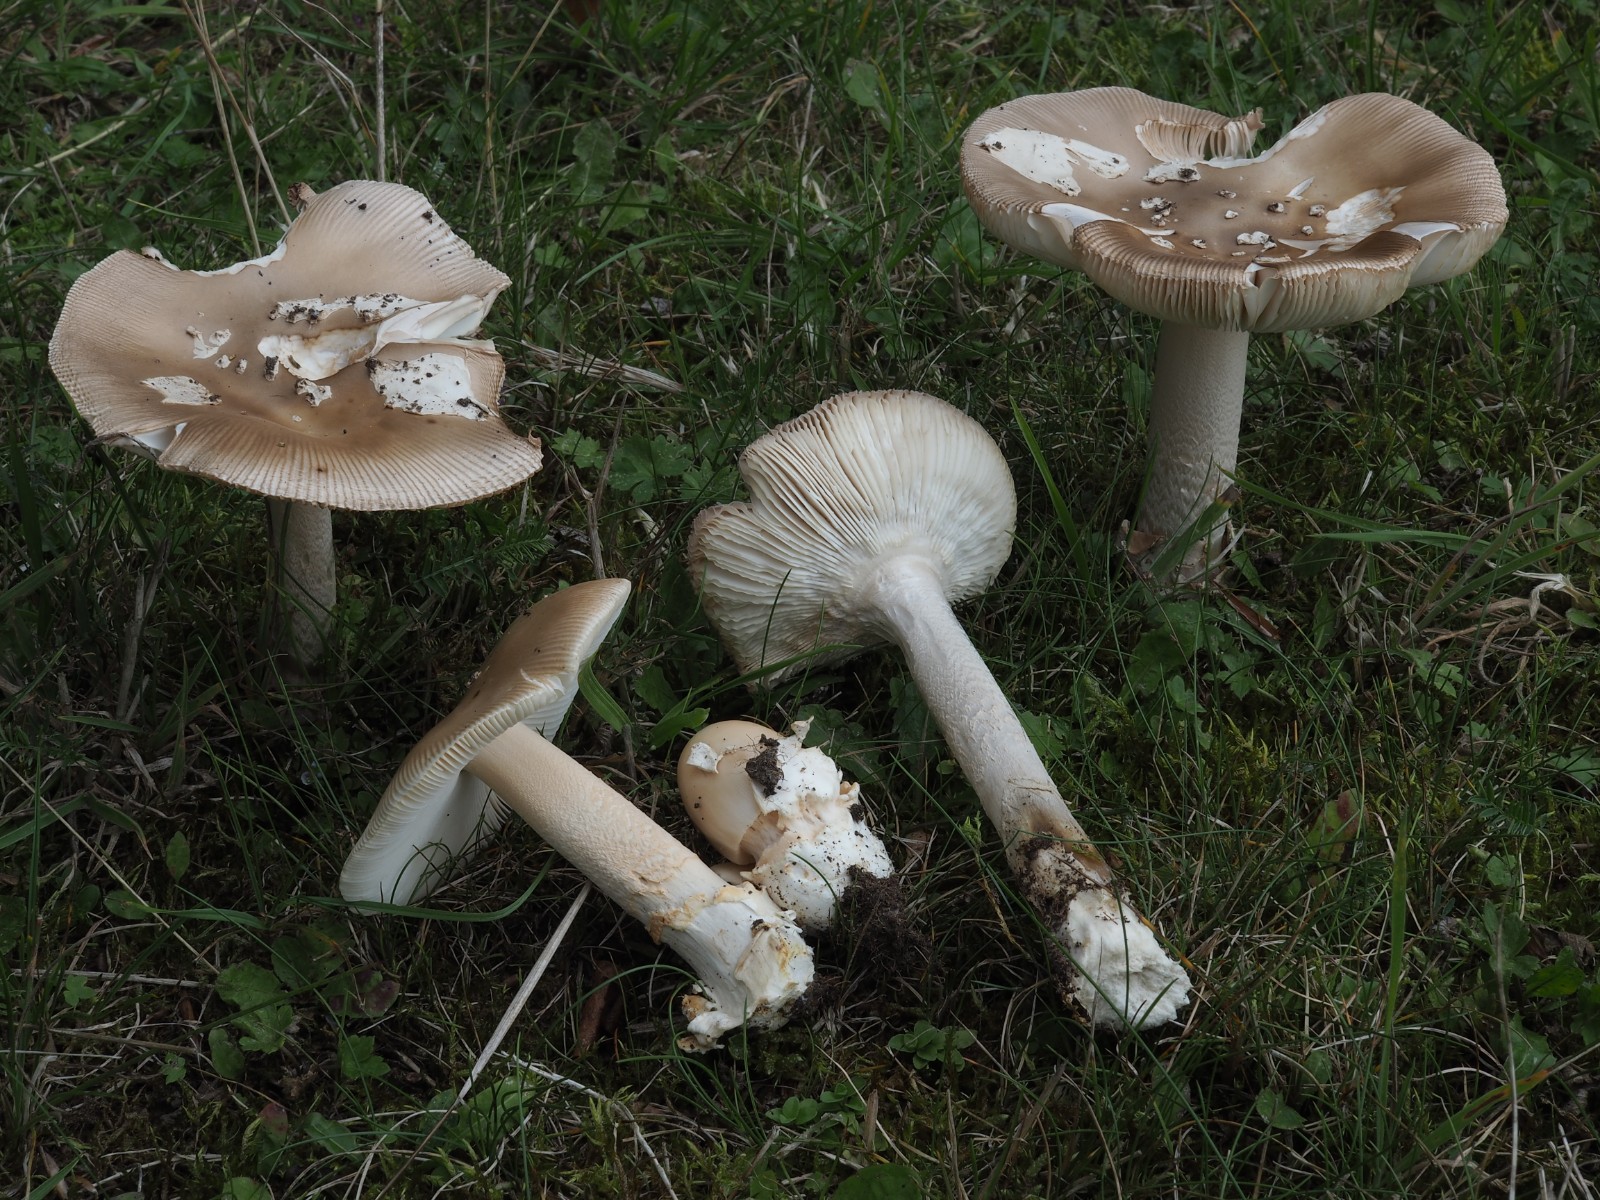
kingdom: Fungi
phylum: Basidiomycota
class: Agaricomycetes
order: Agaricales
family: Amanitaceae
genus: Amanita
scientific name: Amanita lividopallescens
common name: afblegende kam-fluesvamp
